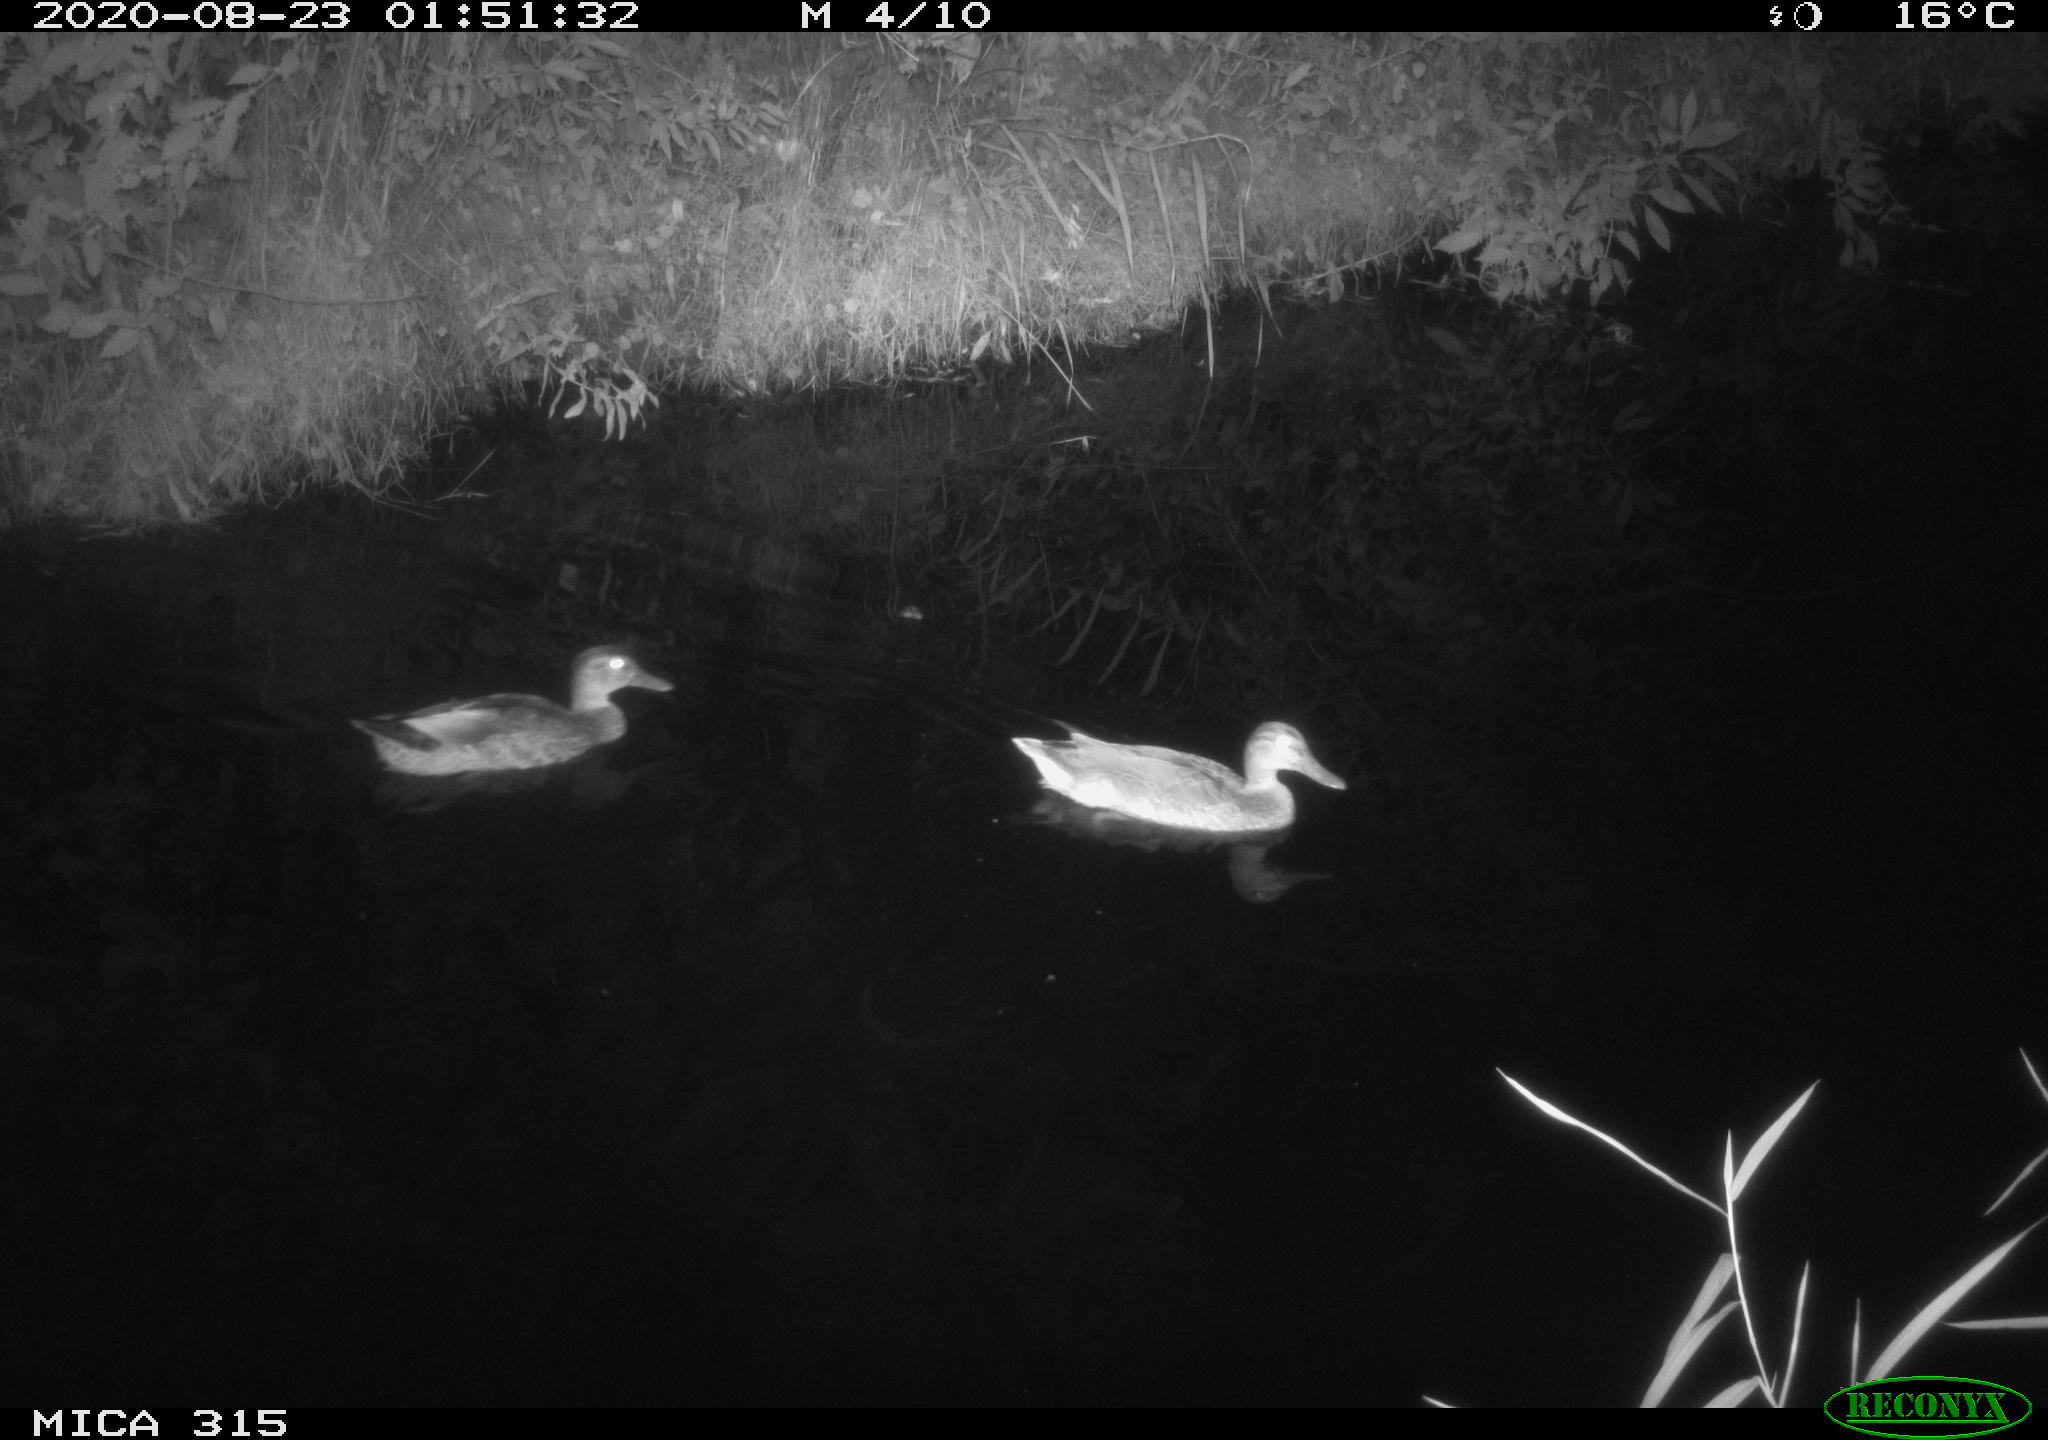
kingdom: Animalia
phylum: Chordata
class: Aves
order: Anseriformes
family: Anatidae
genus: Anas
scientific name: Anas platyrhynchos
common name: Mallard
